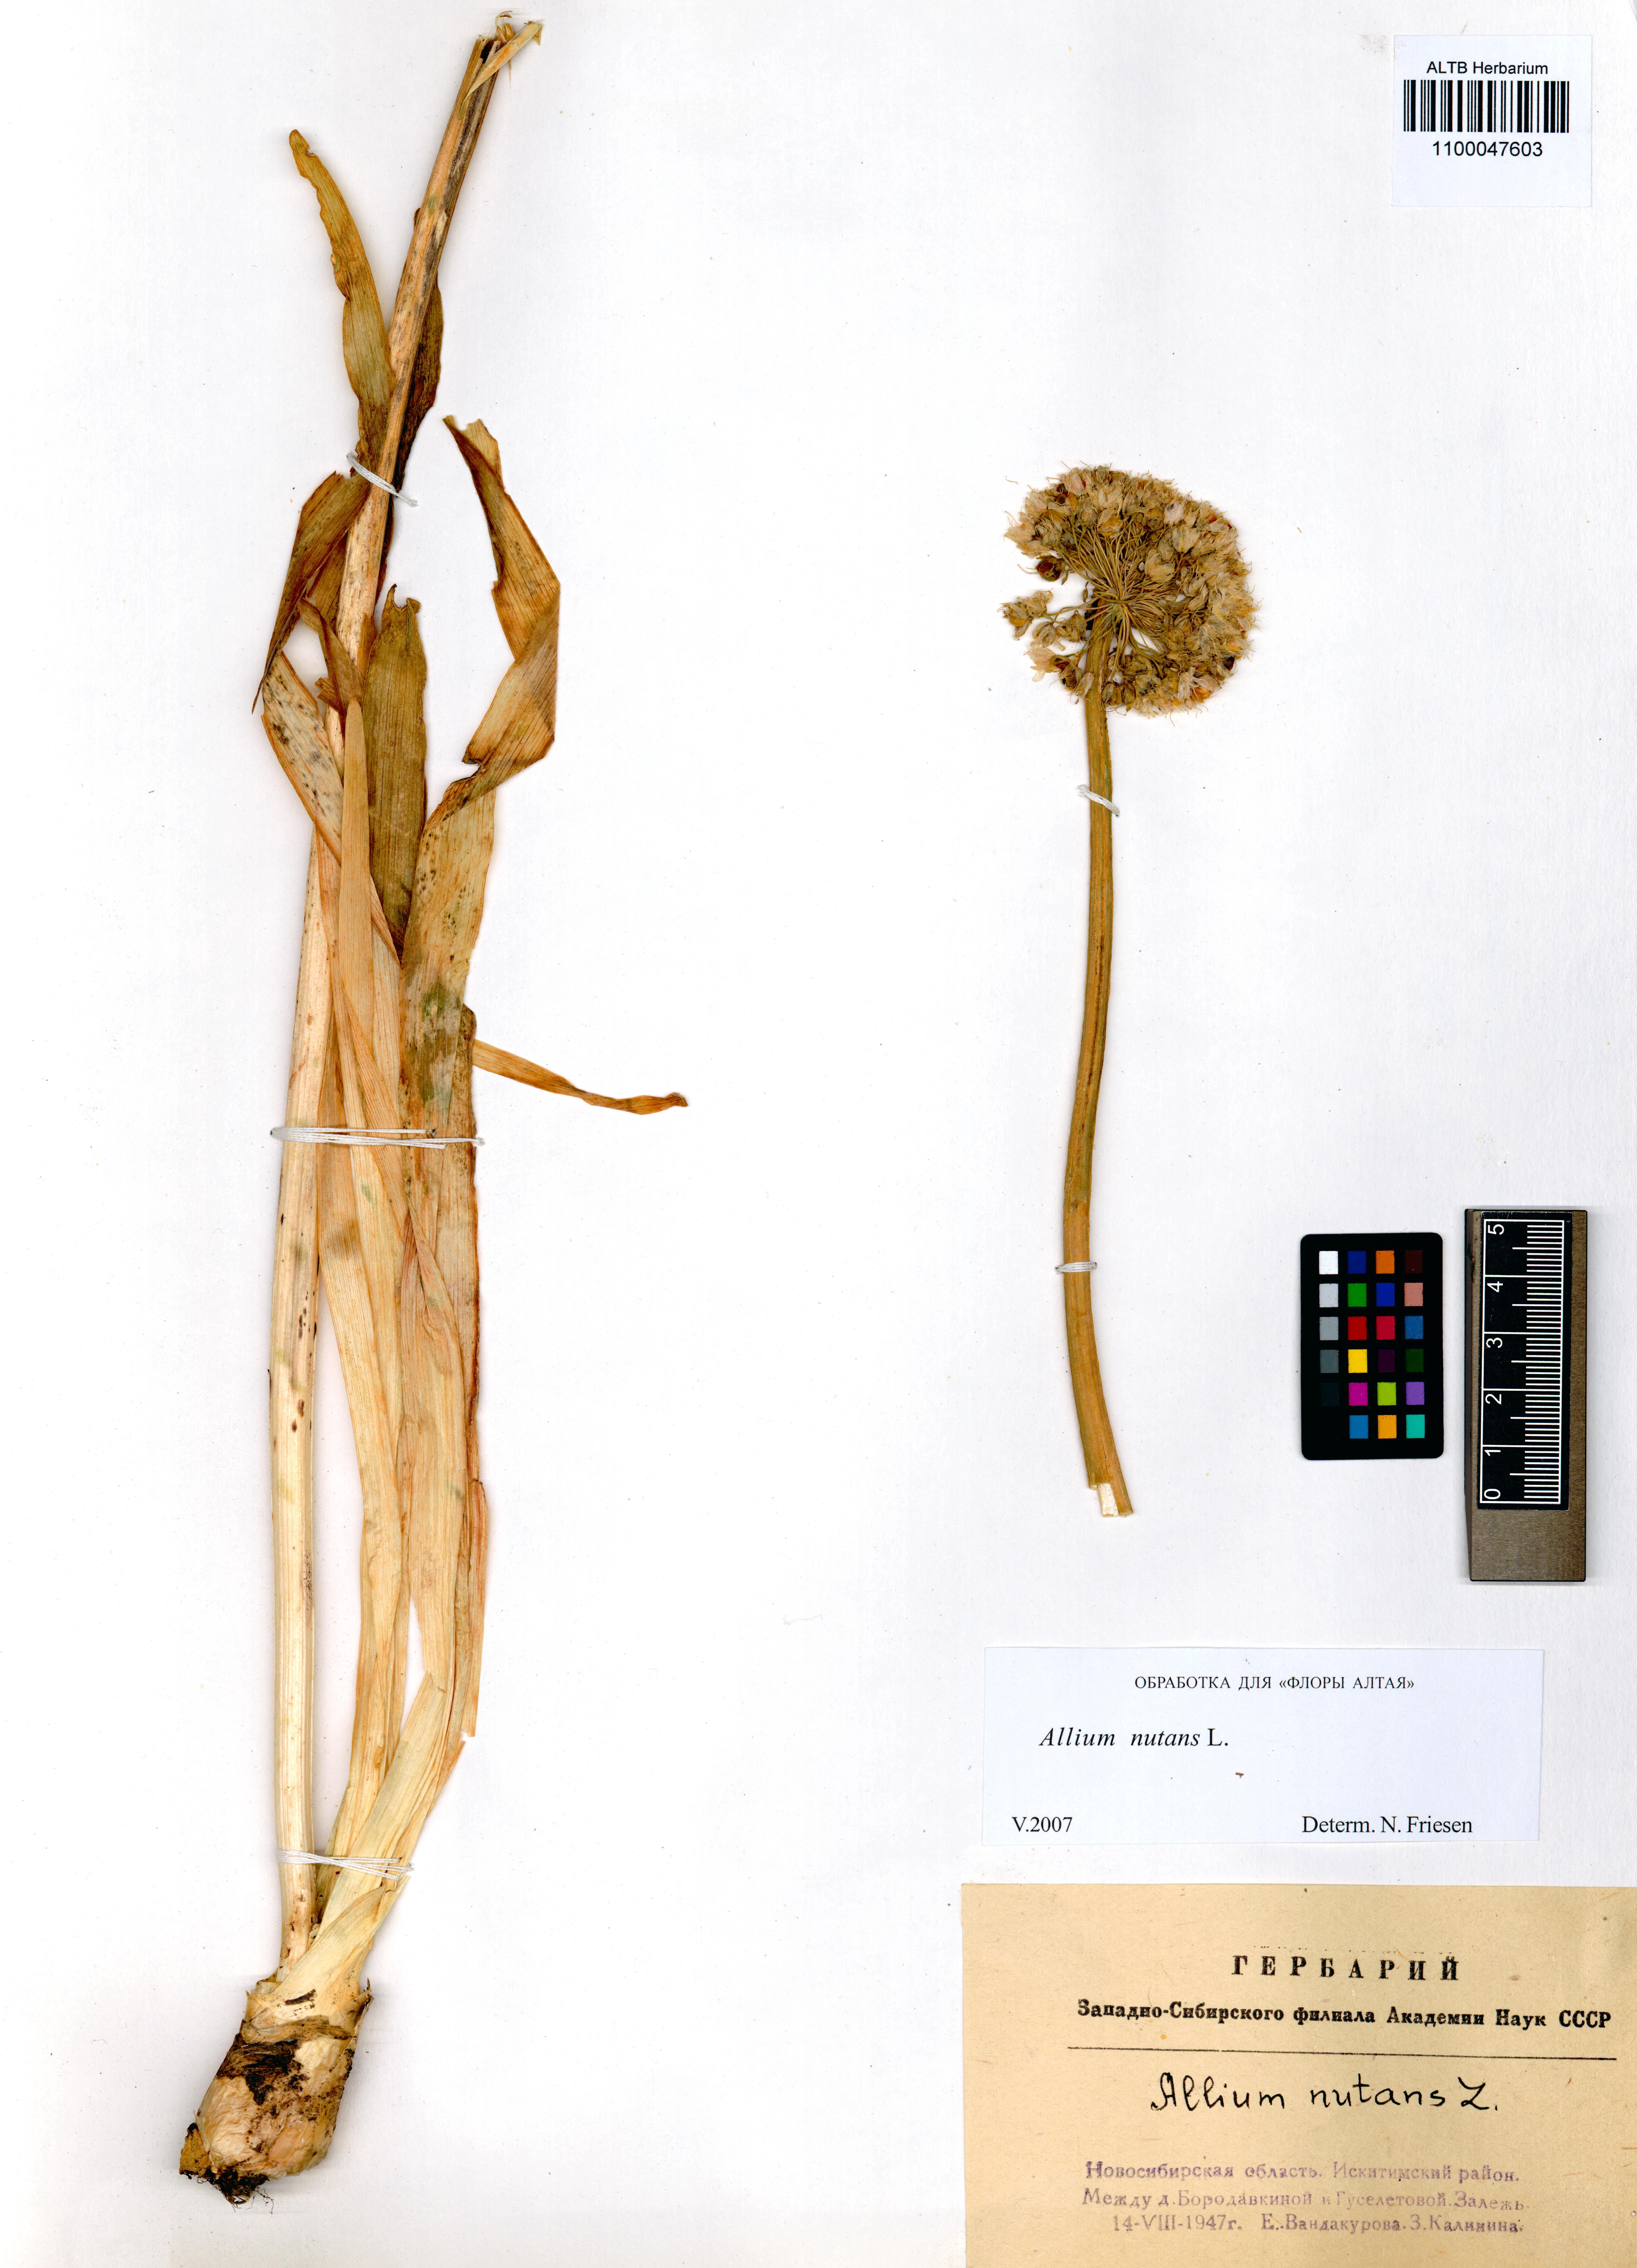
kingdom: Plantae
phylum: Tracheophyta
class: Liliopsida
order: Asparagales
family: Amaryllidaceae
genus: Allium
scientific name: Allium nutans
